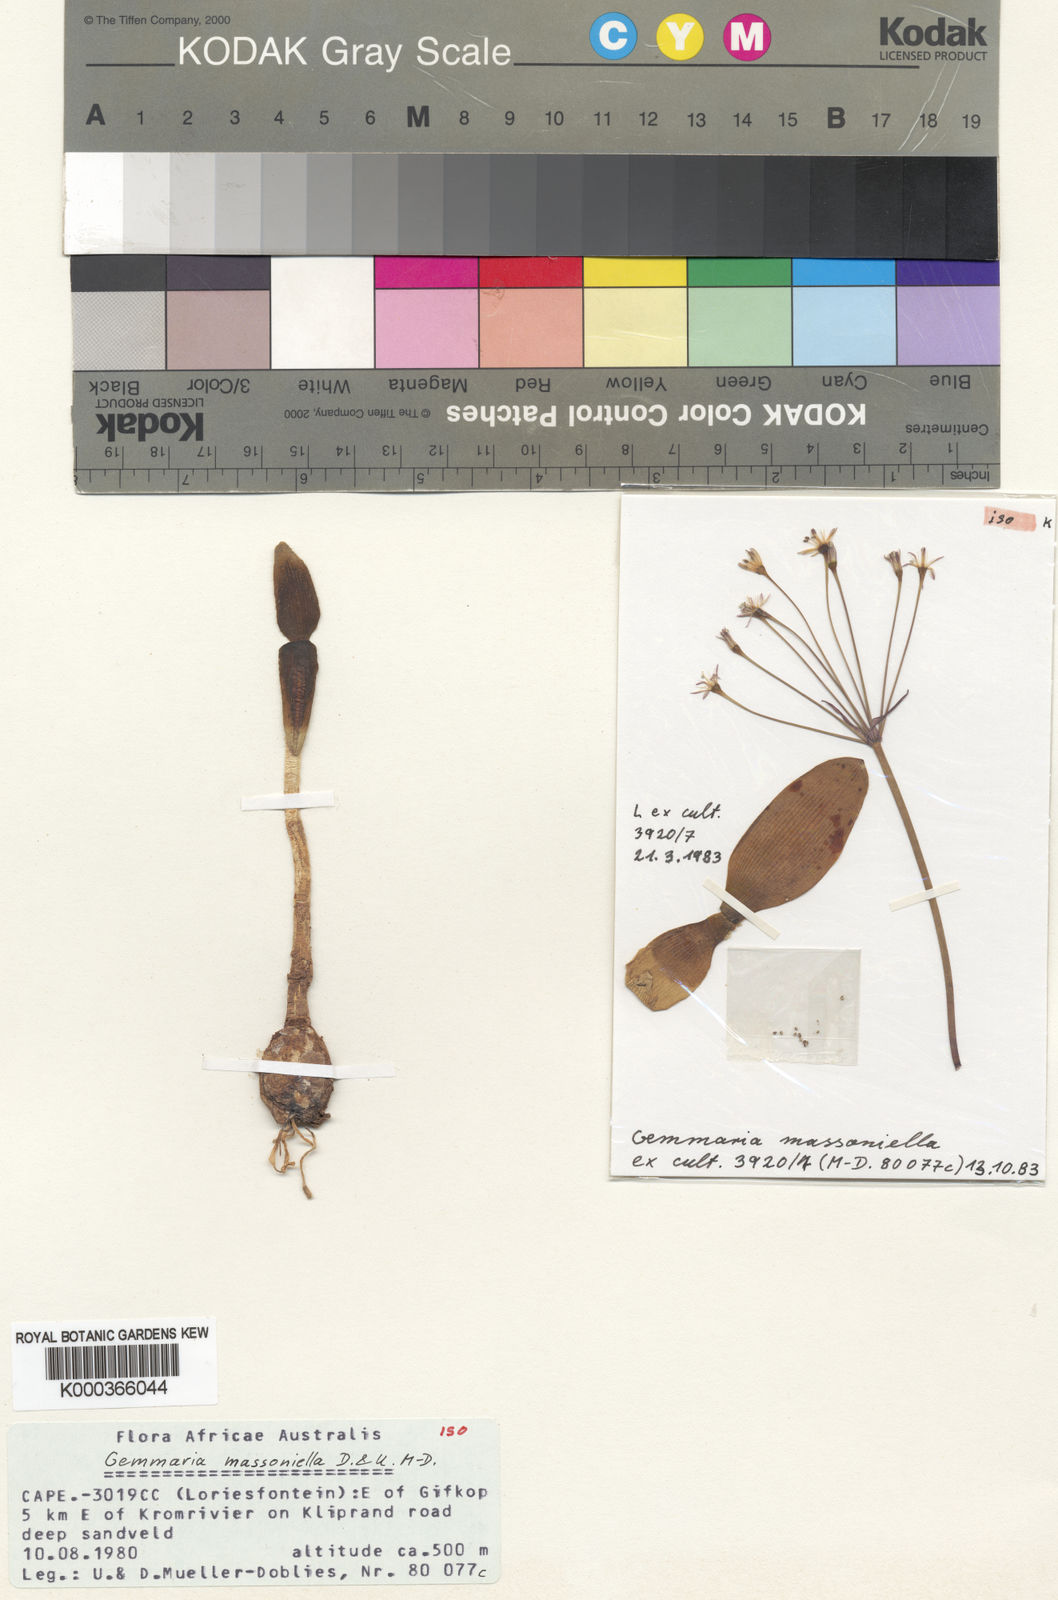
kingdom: Plantae
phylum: Tracheophyta
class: Liliopsida
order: Asparagales
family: Amaryllidaceae
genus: Strumaria
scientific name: Strumaria
